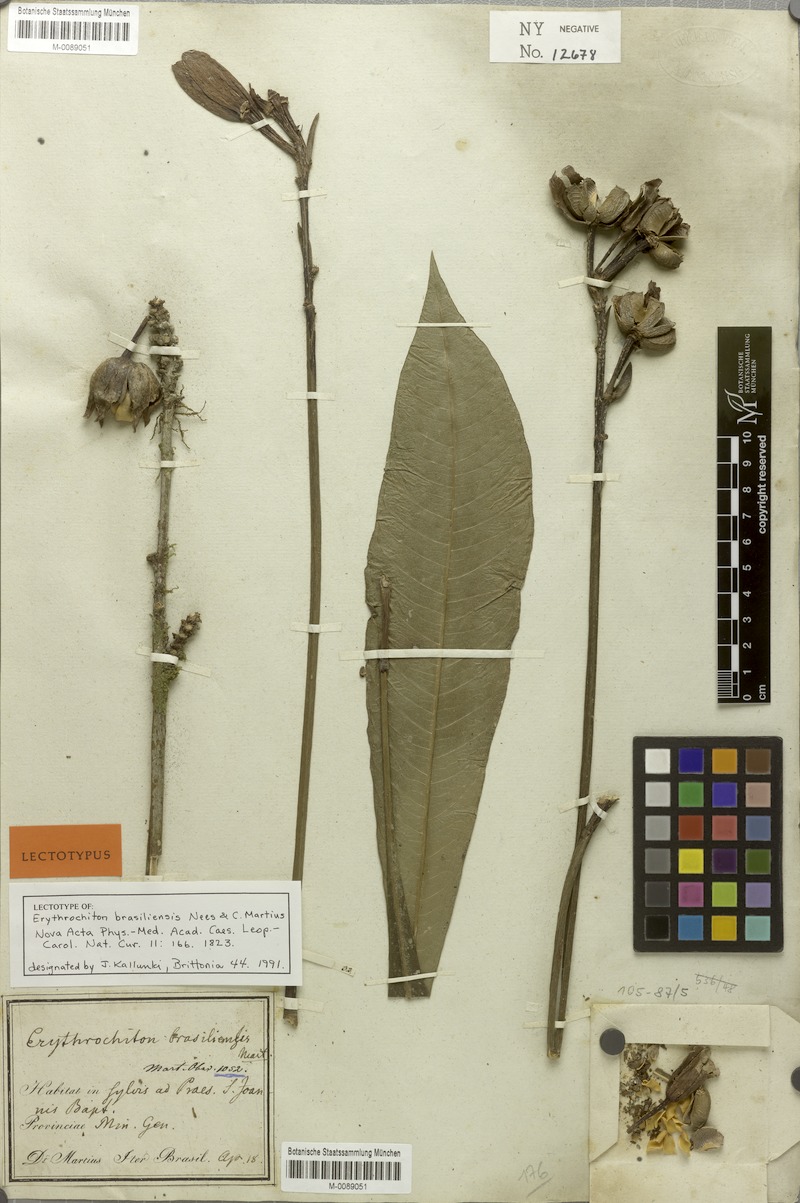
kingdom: Plantae
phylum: Tracheophyta
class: Magnoliopsida
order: Sapindales
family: Rutaceae
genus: Erythrochiton
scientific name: Erythrochiton brasiliensis
